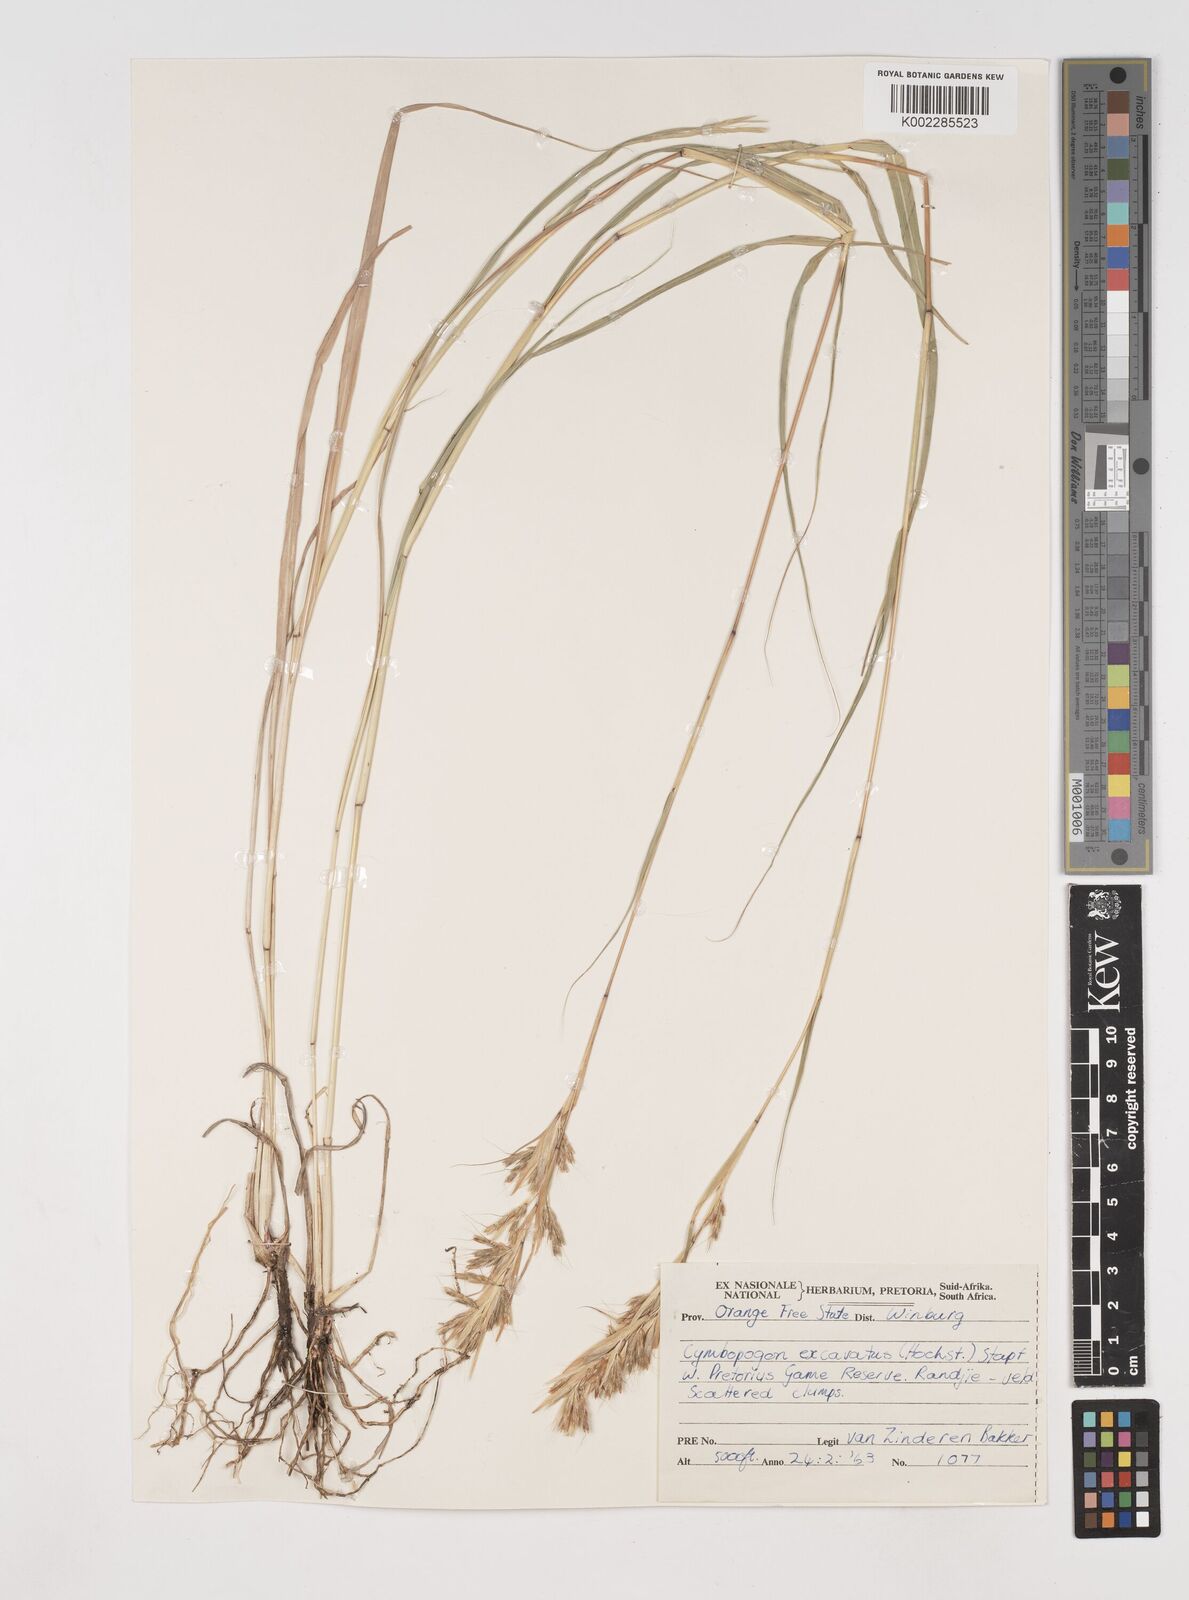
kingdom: Plantae
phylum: Tracheophyta
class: Liliopsida
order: Poales
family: Poaceae
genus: Cymbopogon
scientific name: Cymbopogon caesius
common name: Kachi grass
